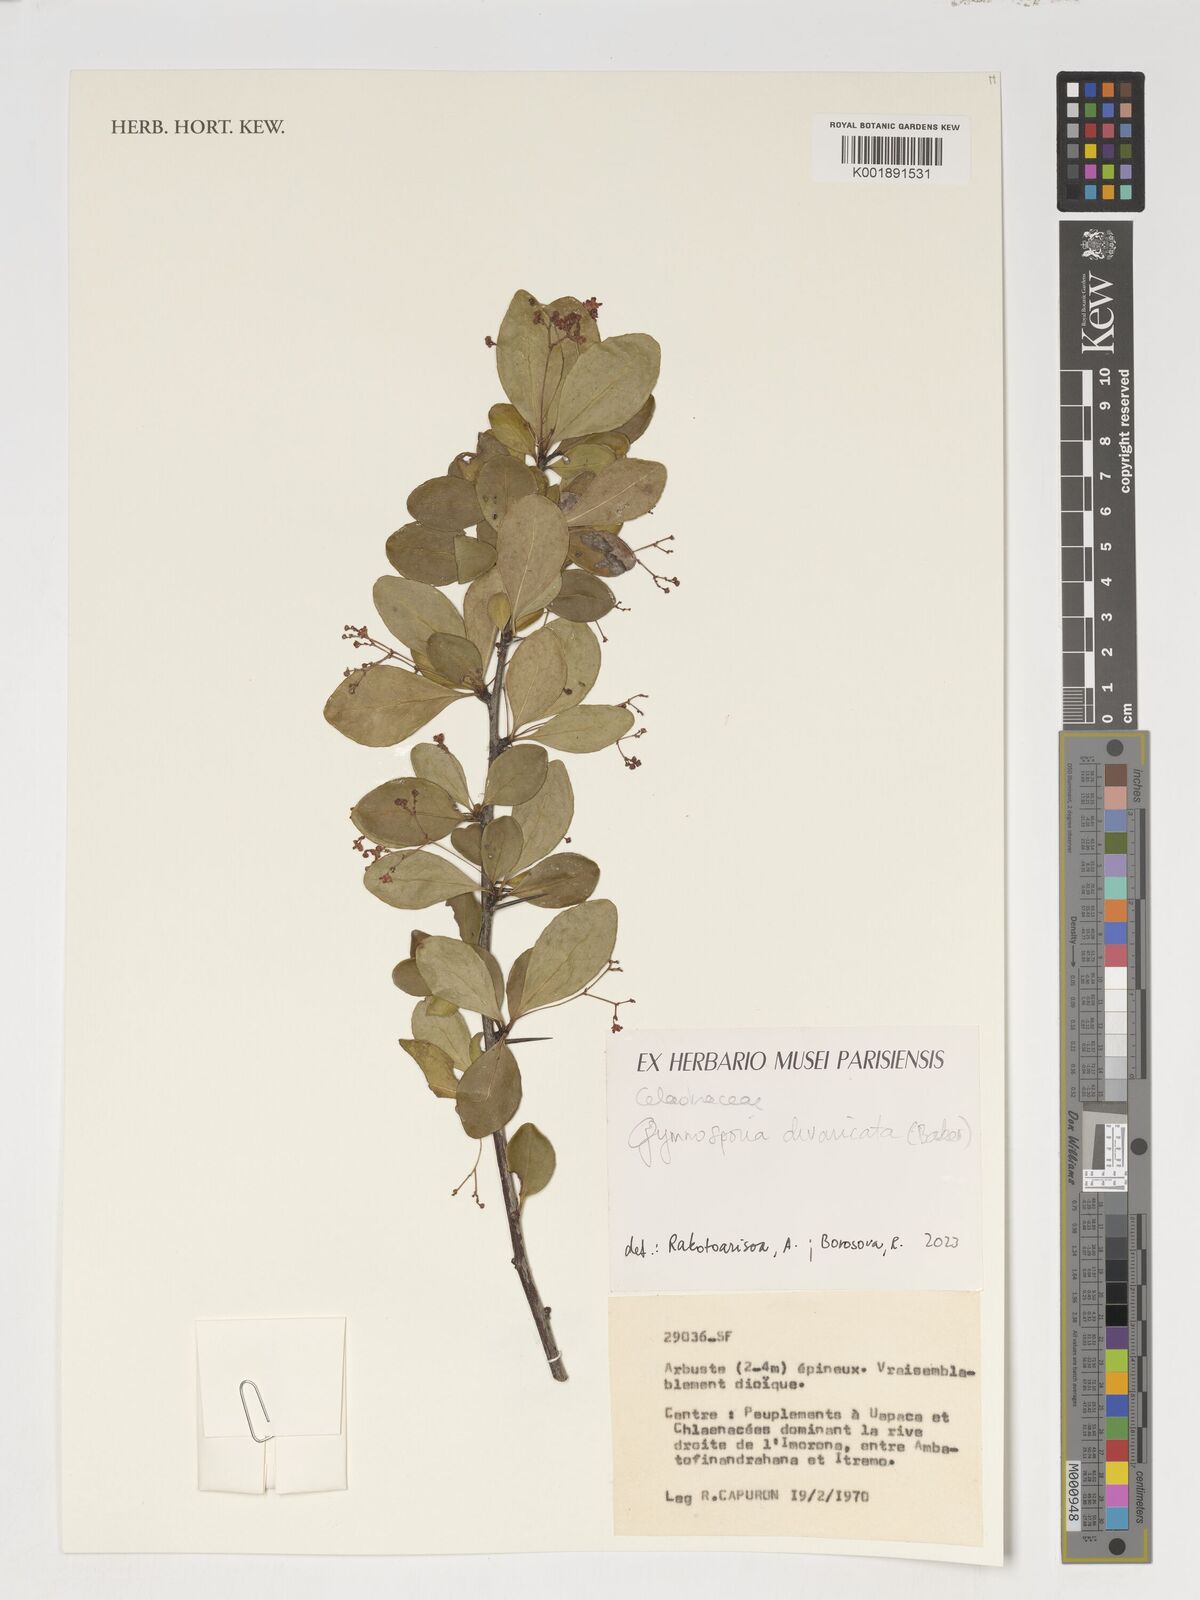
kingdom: Plantae
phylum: Tracheophyta
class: Magnoliopsida
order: Celastrales
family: Celastraceae
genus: Gymnosporia
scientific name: Gymnosporia divaricata
